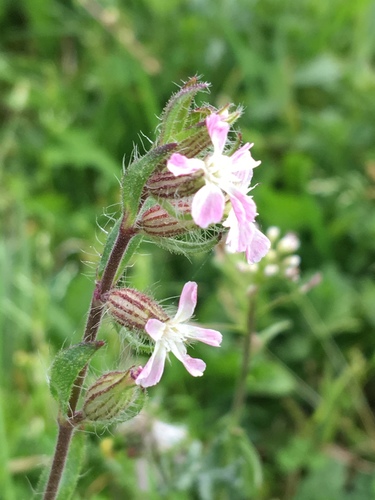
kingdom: Plantae
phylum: Tracheophyta
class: Magnoliopsida
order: Caryophyllales
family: Caryophyllaceae
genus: Silene
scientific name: Silene gallica
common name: Small-flowered catchfly
